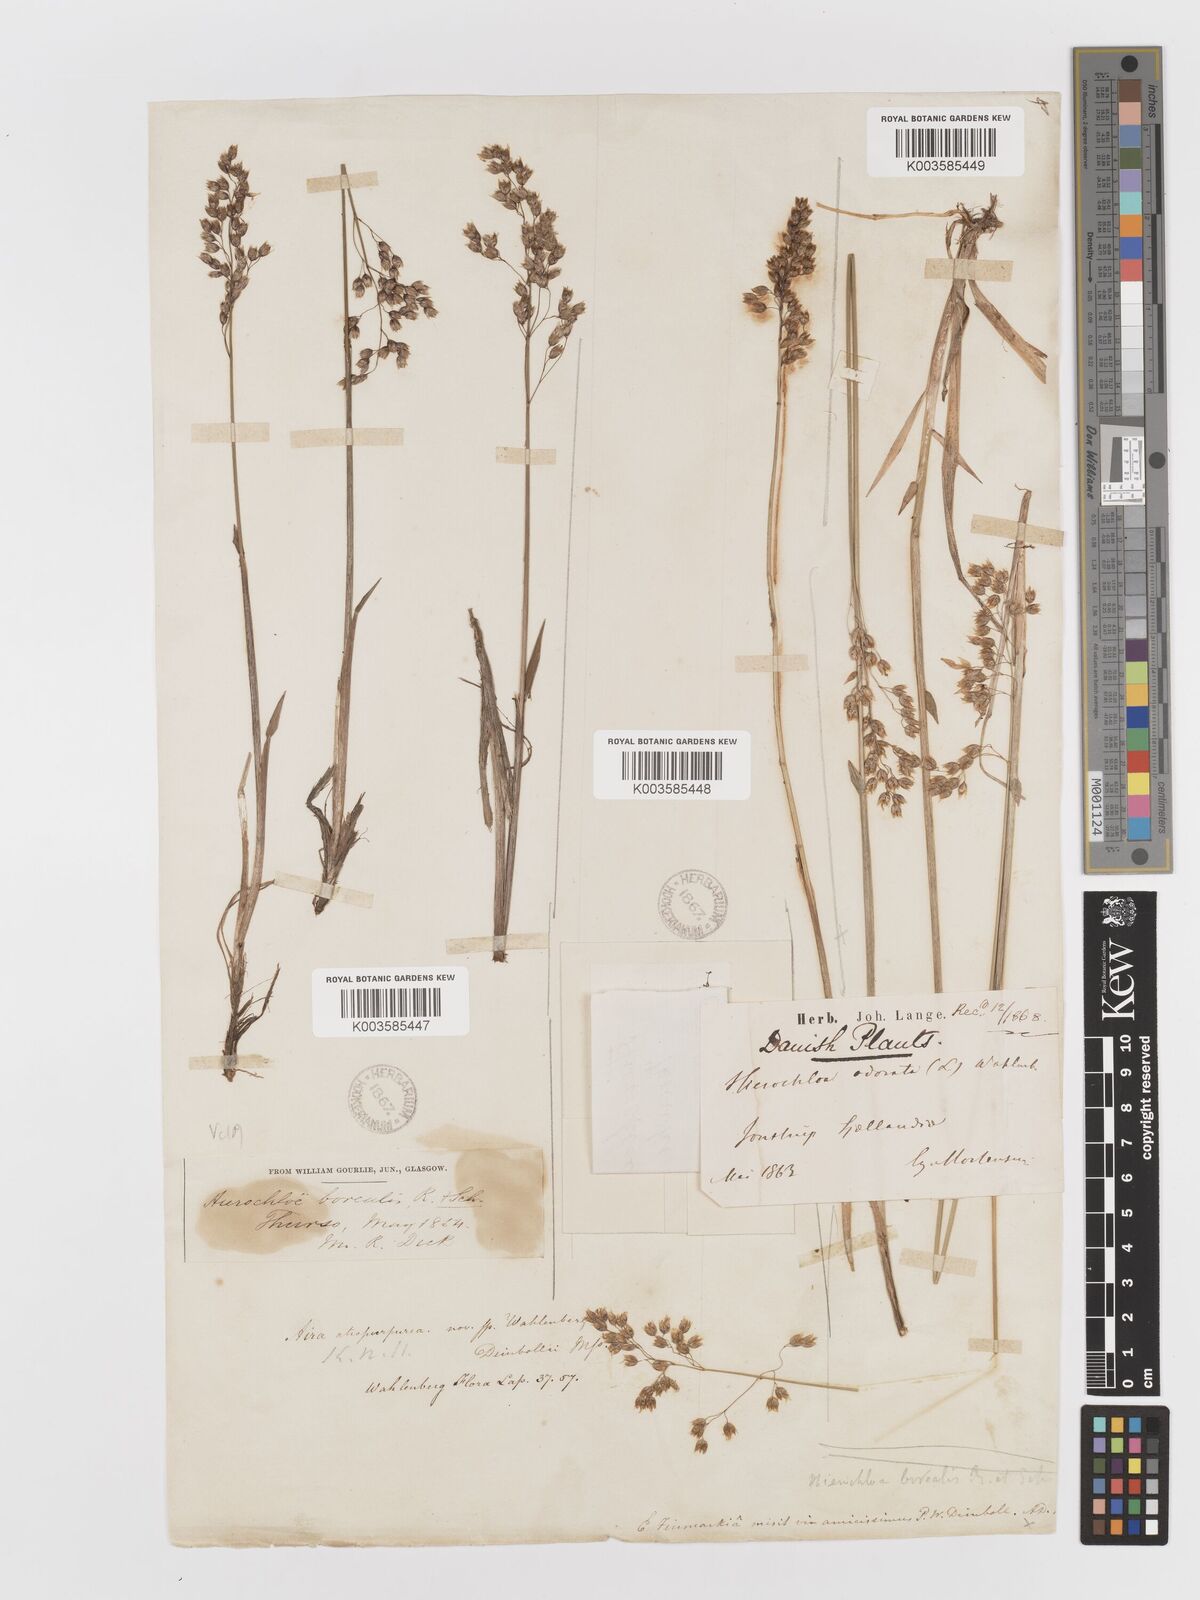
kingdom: Plantae
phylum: Tracheophyta
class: Liliopsida
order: Poales
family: Poaceae
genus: Anthoxanthum
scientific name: Anthoxanthum nitens
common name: Holy grass
